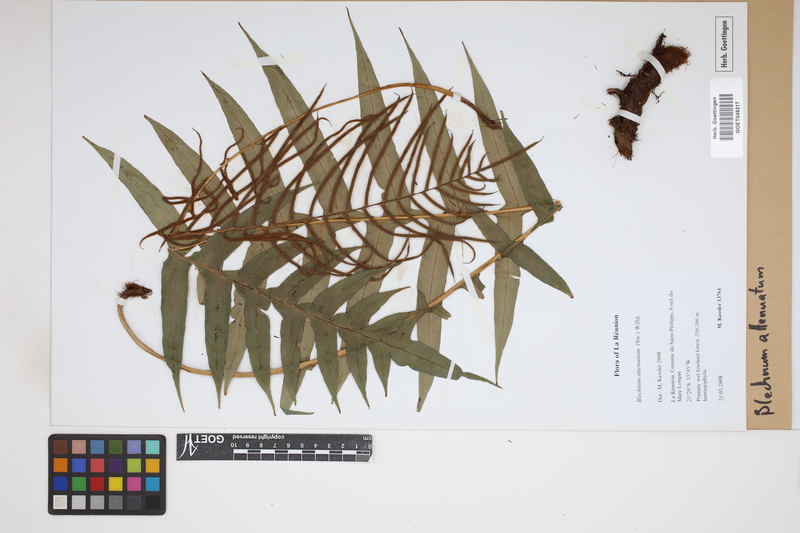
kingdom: Plantae
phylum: Tracheophyta
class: Polypodiopsida
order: Polypodiales
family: Blechnaceae
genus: Lomaridium
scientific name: Lomaridium attenuatum
